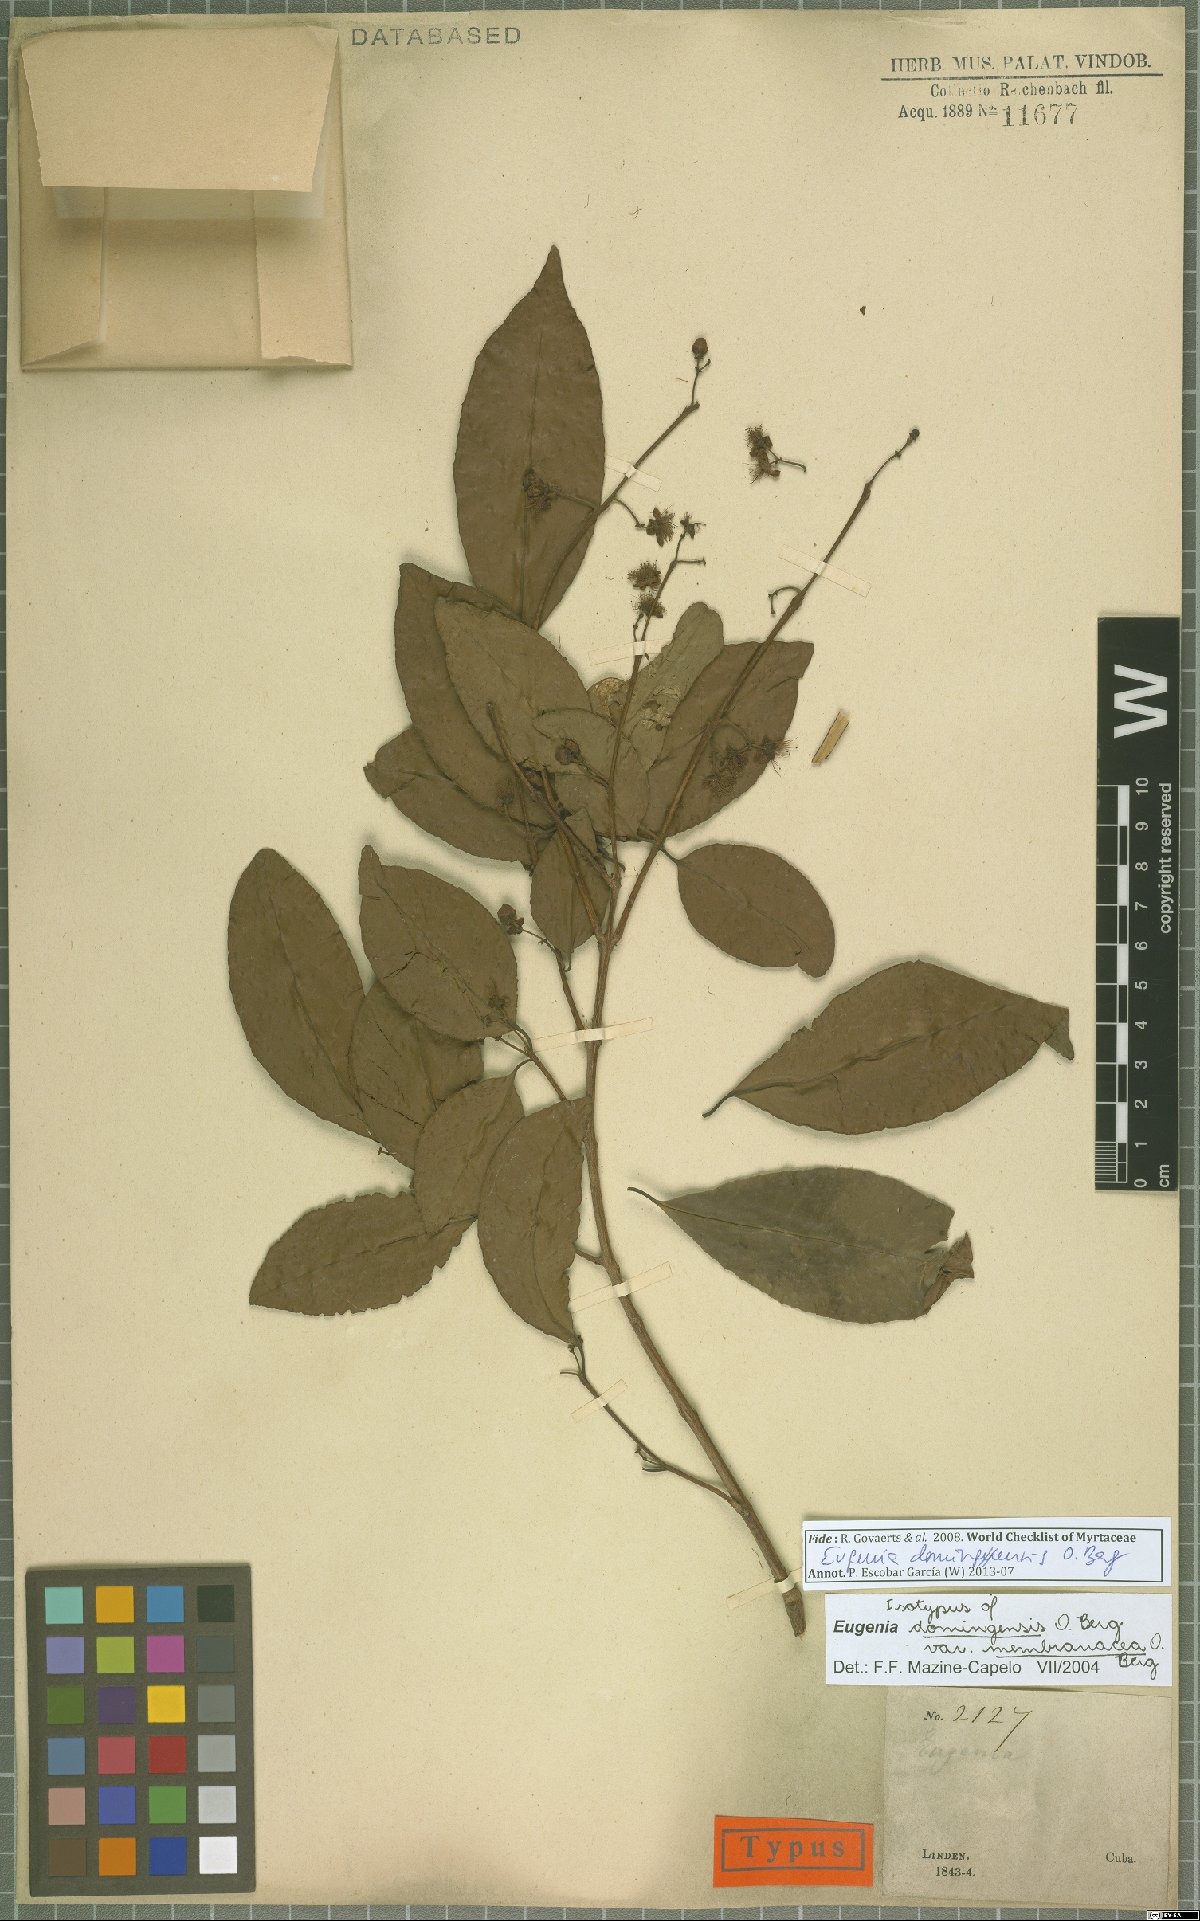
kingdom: Plantae
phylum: Tracheophyta
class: Magnoliopsida
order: Myrtales
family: Myrtaceae
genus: Eugenia
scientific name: Eugenia domingensis
